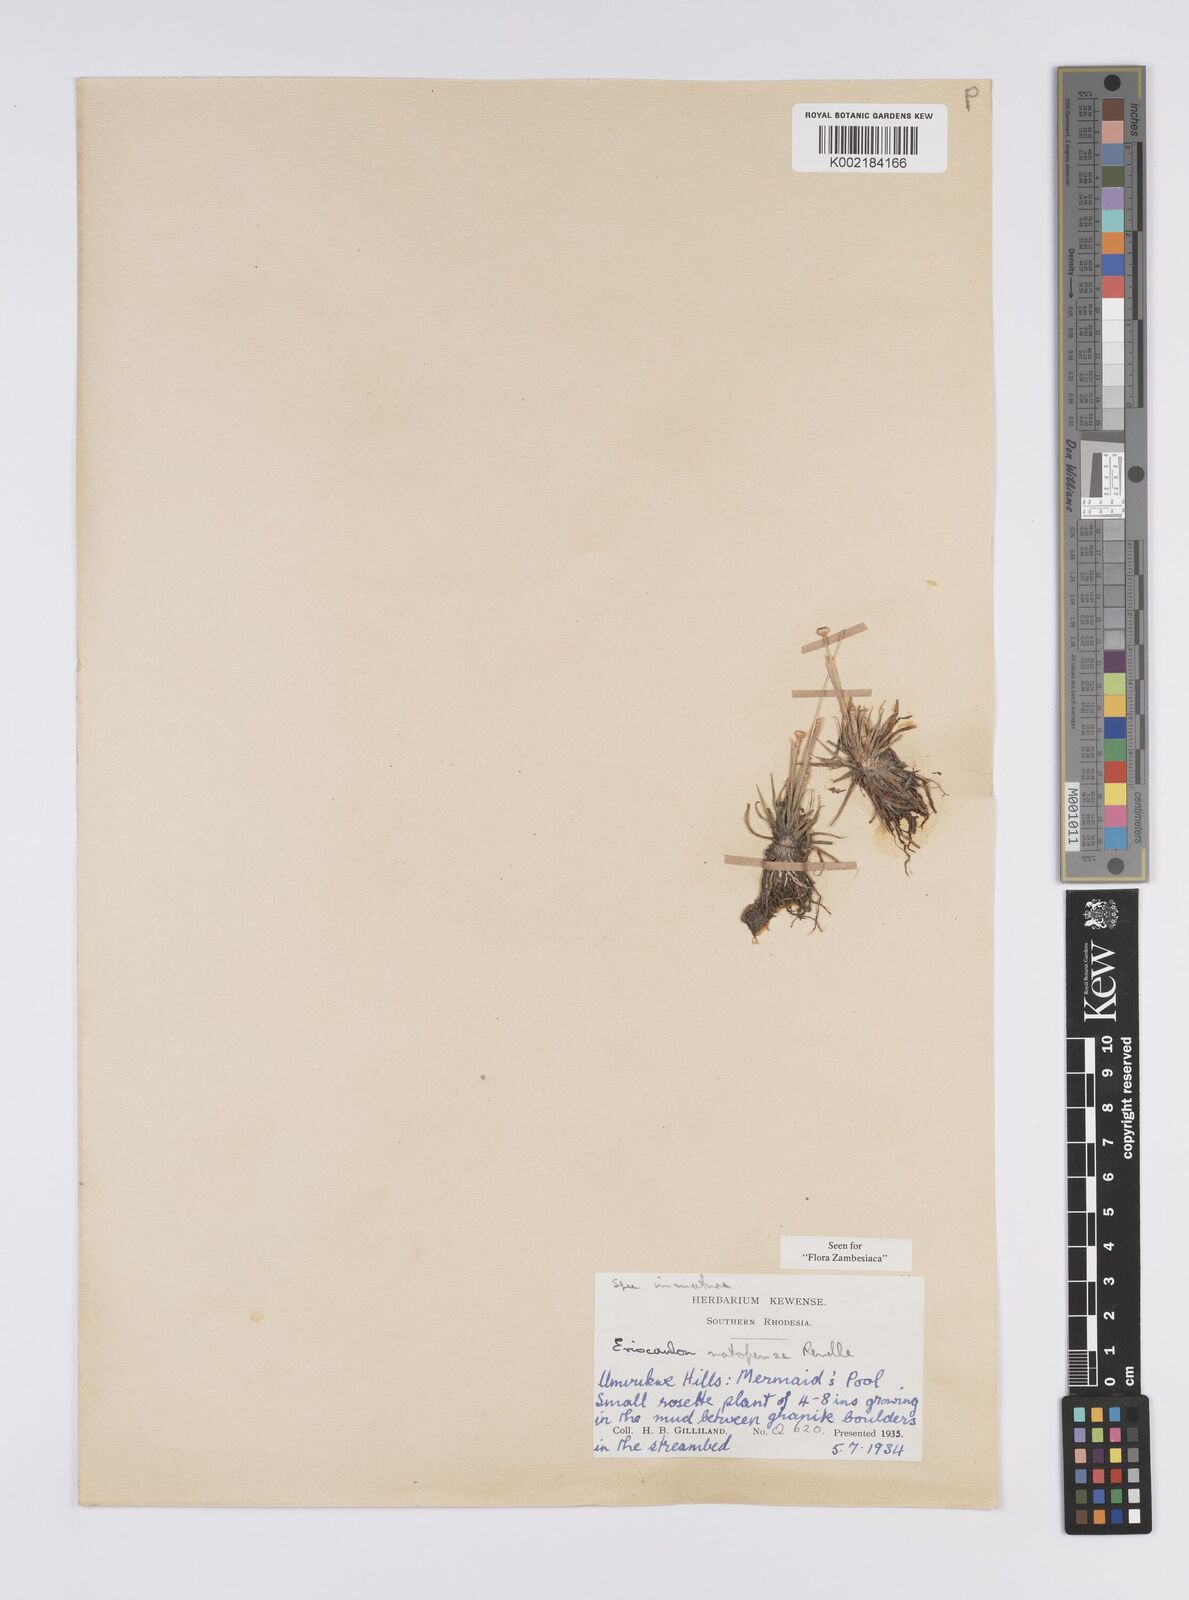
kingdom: Plantae
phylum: Tracheophyta
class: Liliopsida
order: Poales
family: Eriocaulaceae
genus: Eriocaulon
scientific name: Eriocaulon matopense
